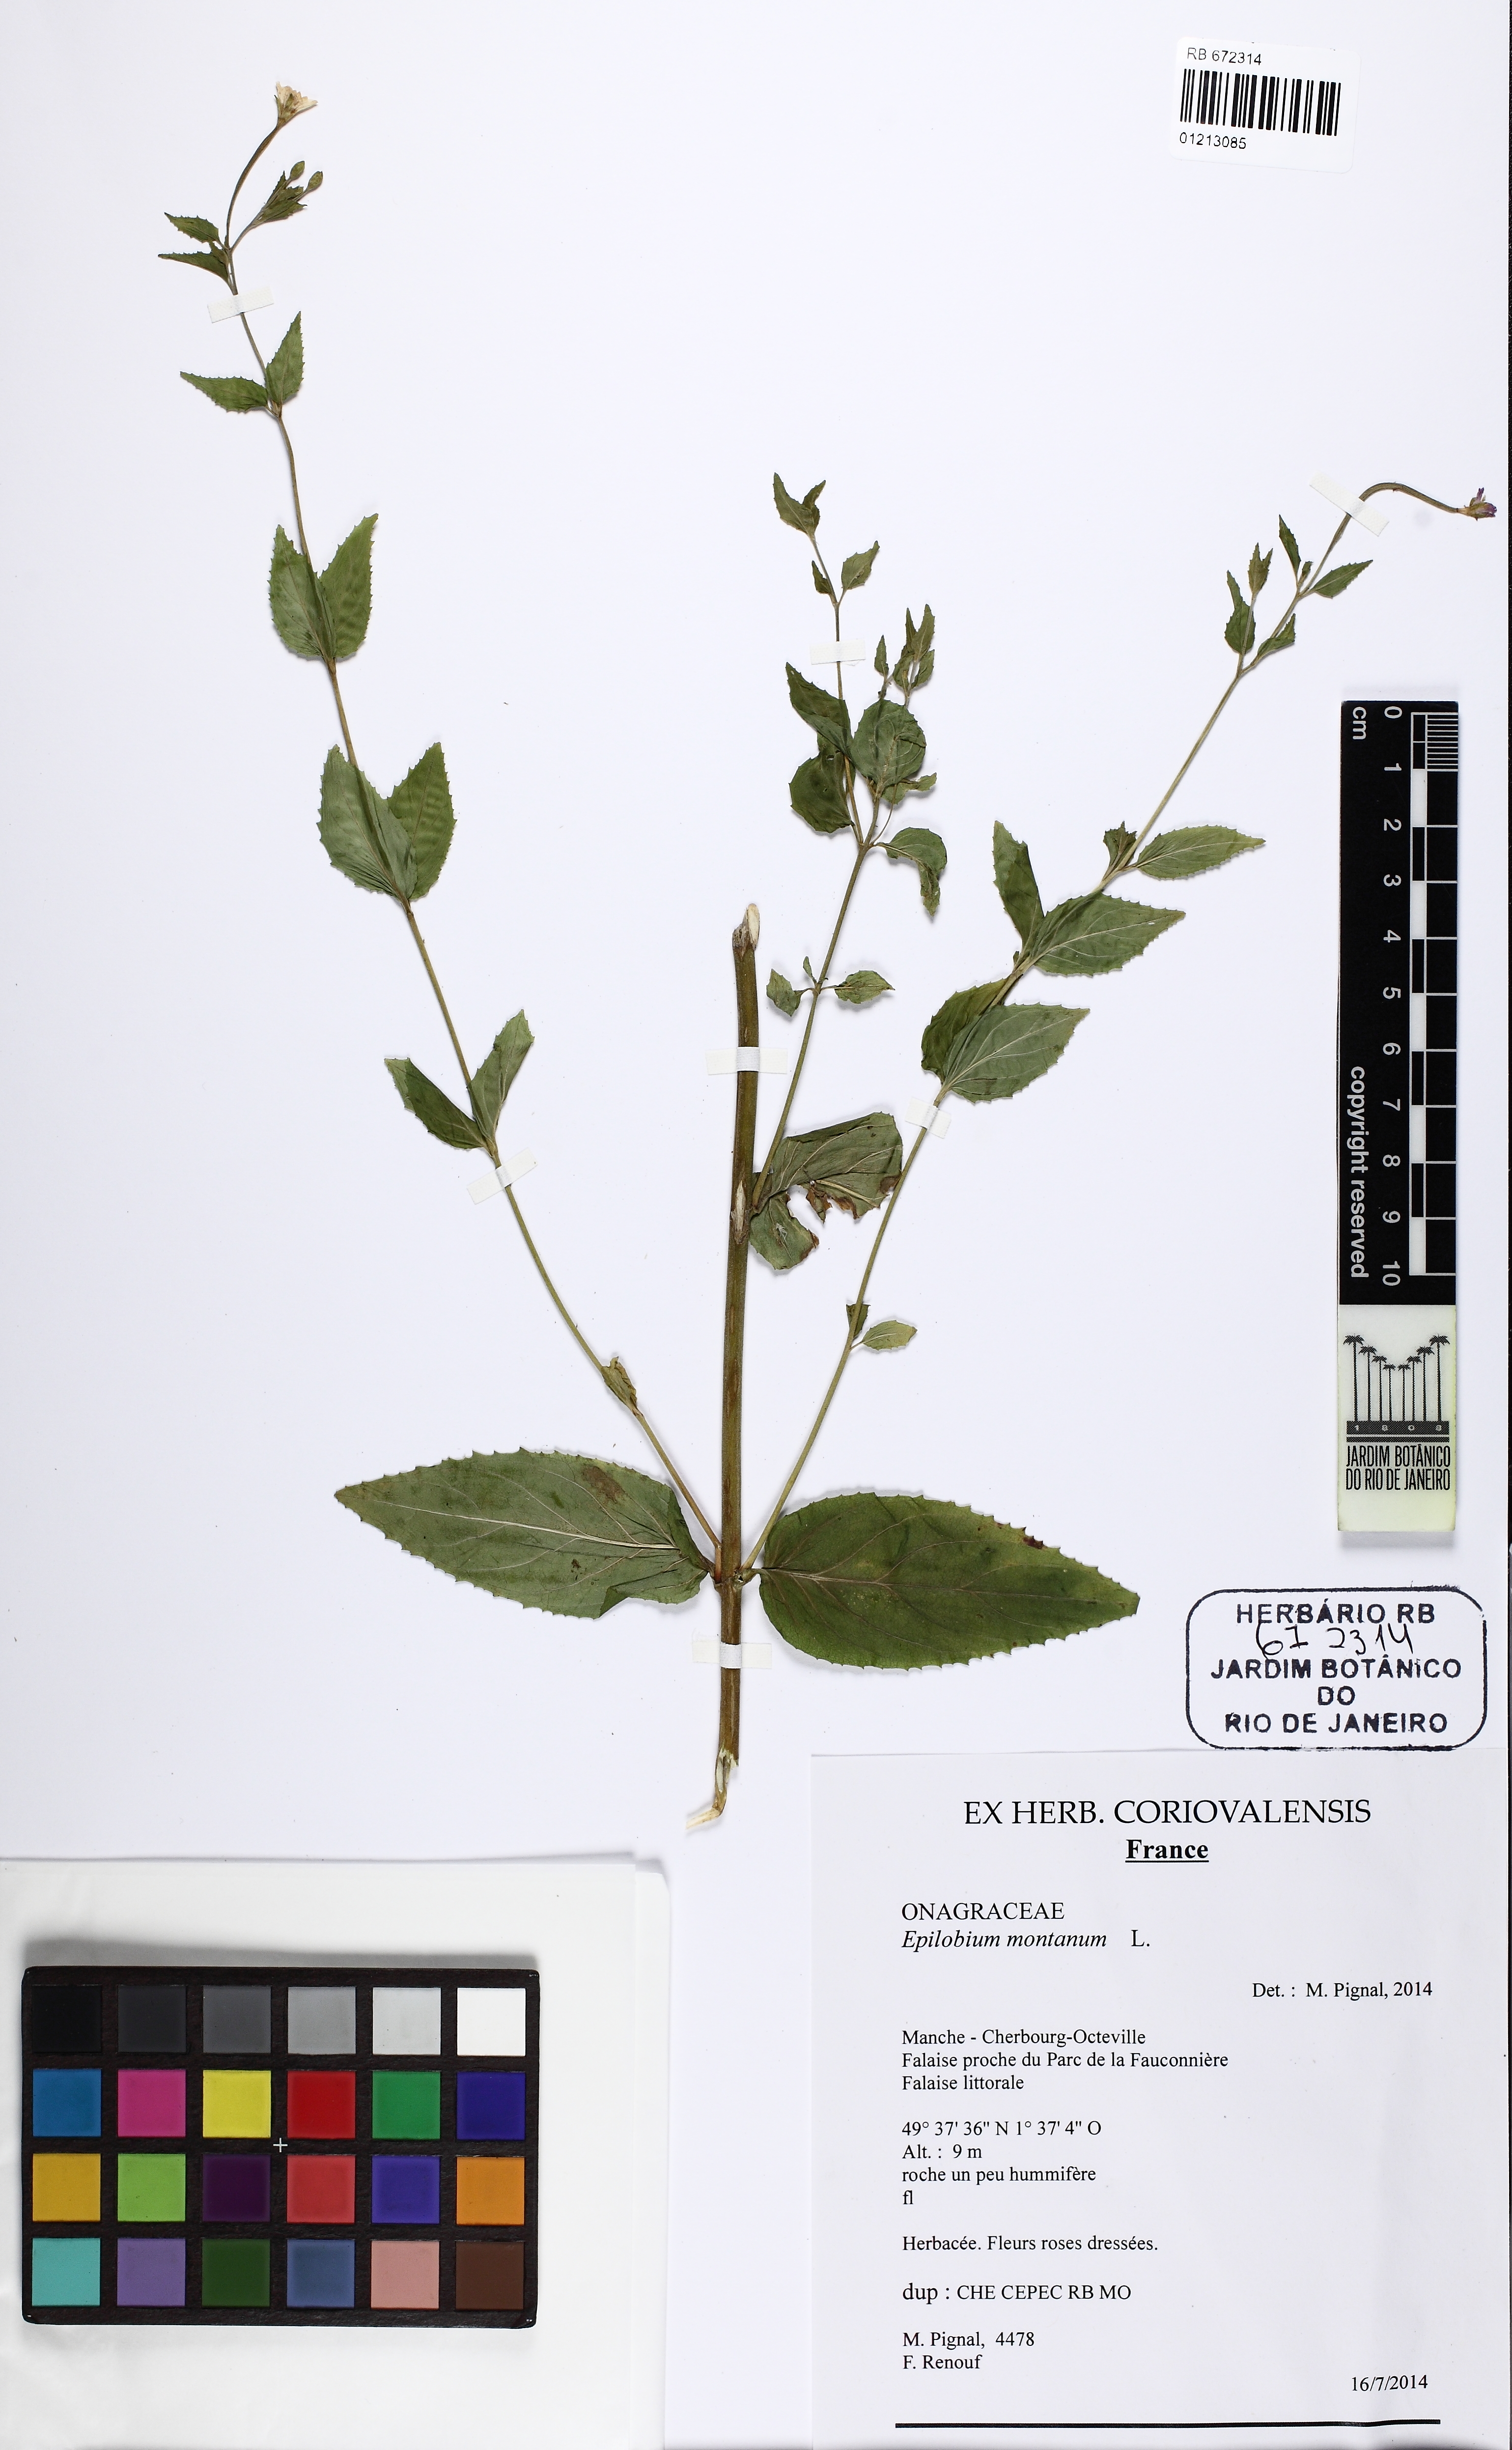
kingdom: Plantae
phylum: Tracheophyta
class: Magnoliopsida
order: Myrtales
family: Onagraceae
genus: Epilobium
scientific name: Epilobium montanum
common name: Broad-leaved willowherb
